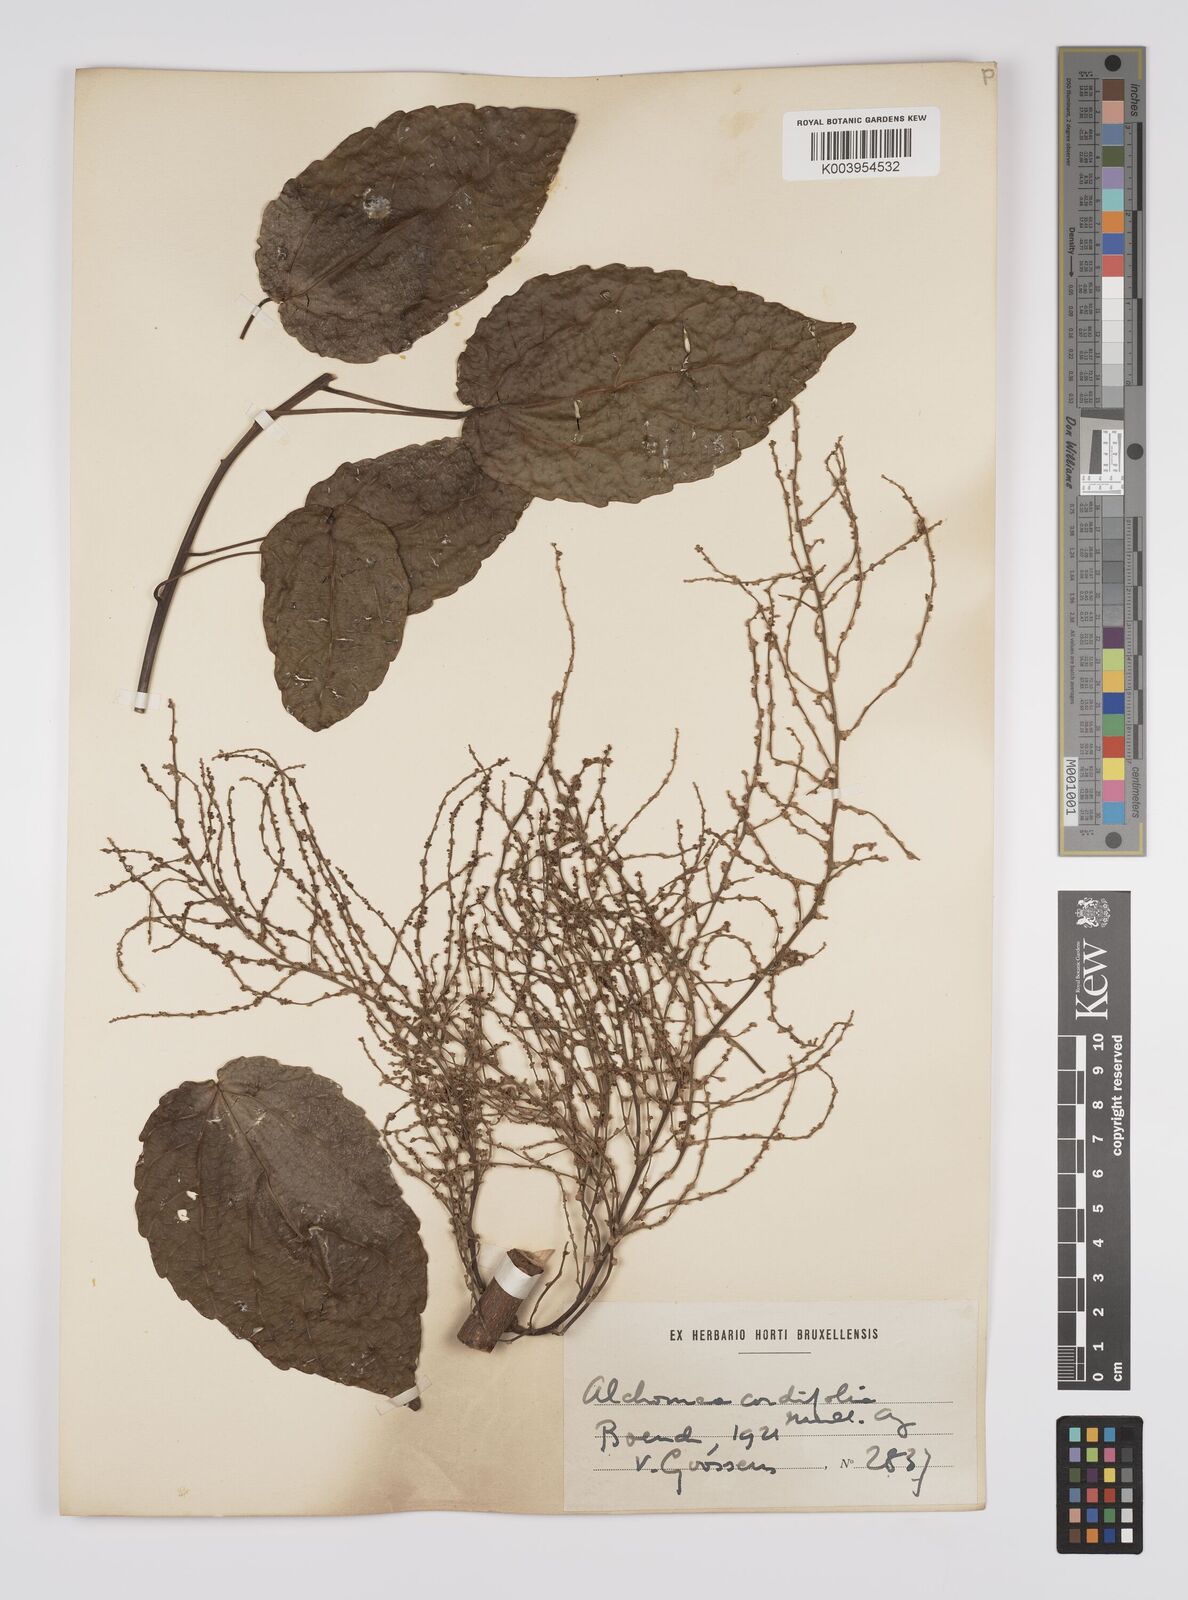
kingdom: Plantae
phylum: Tracheophyta
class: Magnoliopsida
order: Malpighiales
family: Euphorbiaceae
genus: Alchornea
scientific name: Alchornea cordifolia
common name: Christmasbush
